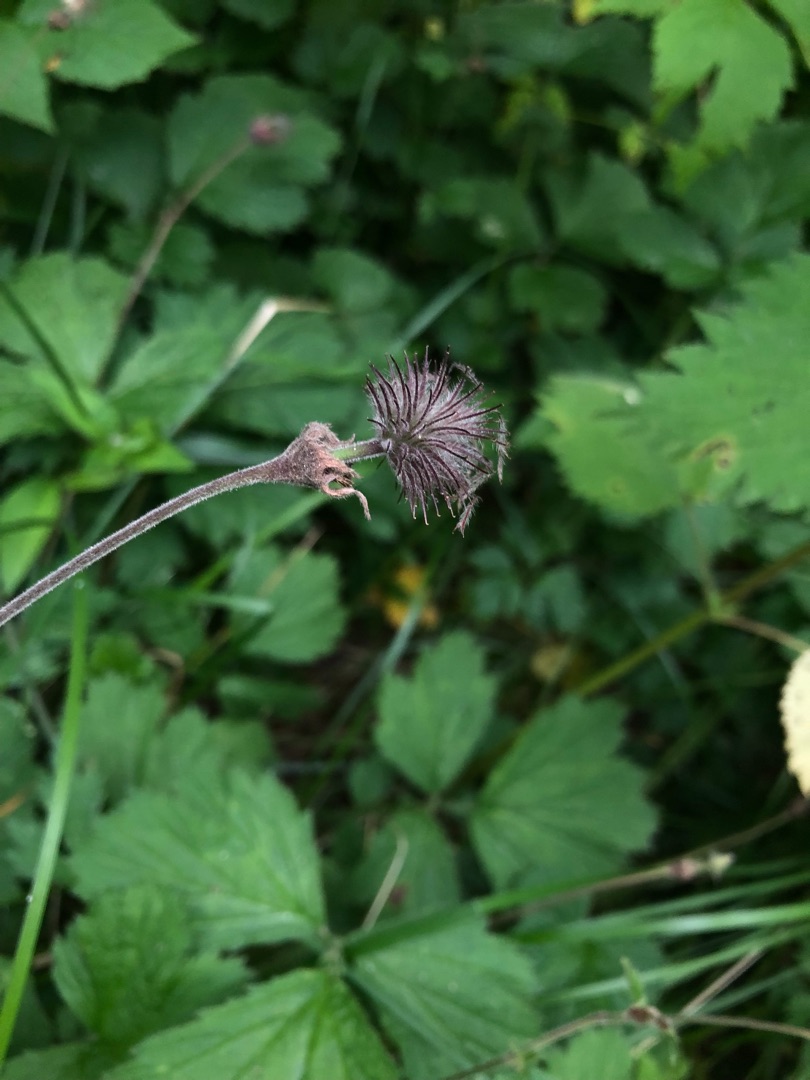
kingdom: Plantae
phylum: Tracheophyta
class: Magnoliopsida
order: Rosales
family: Rosaceae
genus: Geum
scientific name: Geum rivale
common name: Eng-nellikerod
